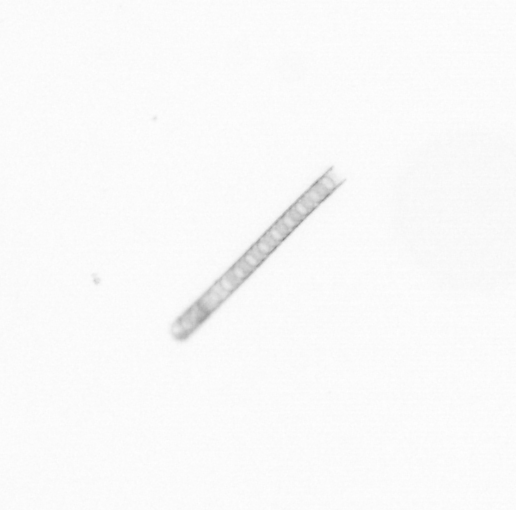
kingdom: Chromista
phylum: Ochrophyta
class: Bacillariophyceae
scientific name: Bacillariophyceae
